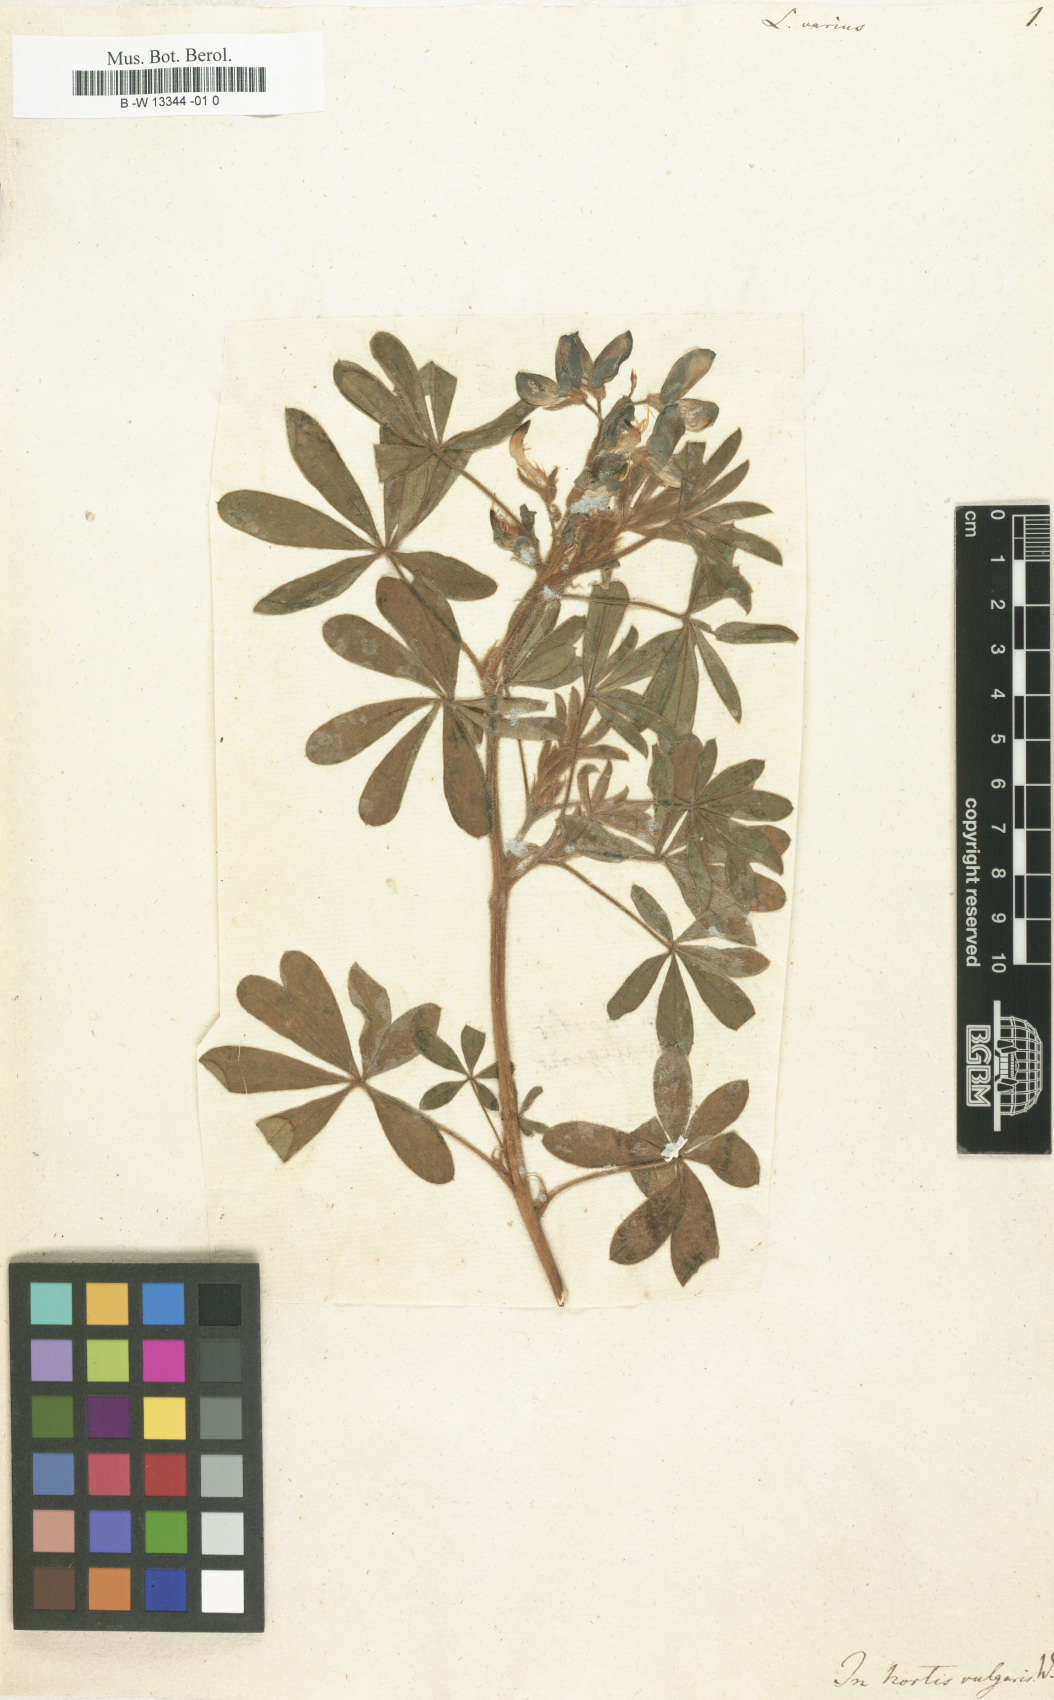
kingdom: Plantae
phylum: Tracheophyta
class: Magnoliopsida
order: Fabales
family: Fabaceae
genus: Lupinus
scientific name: Lupinus
